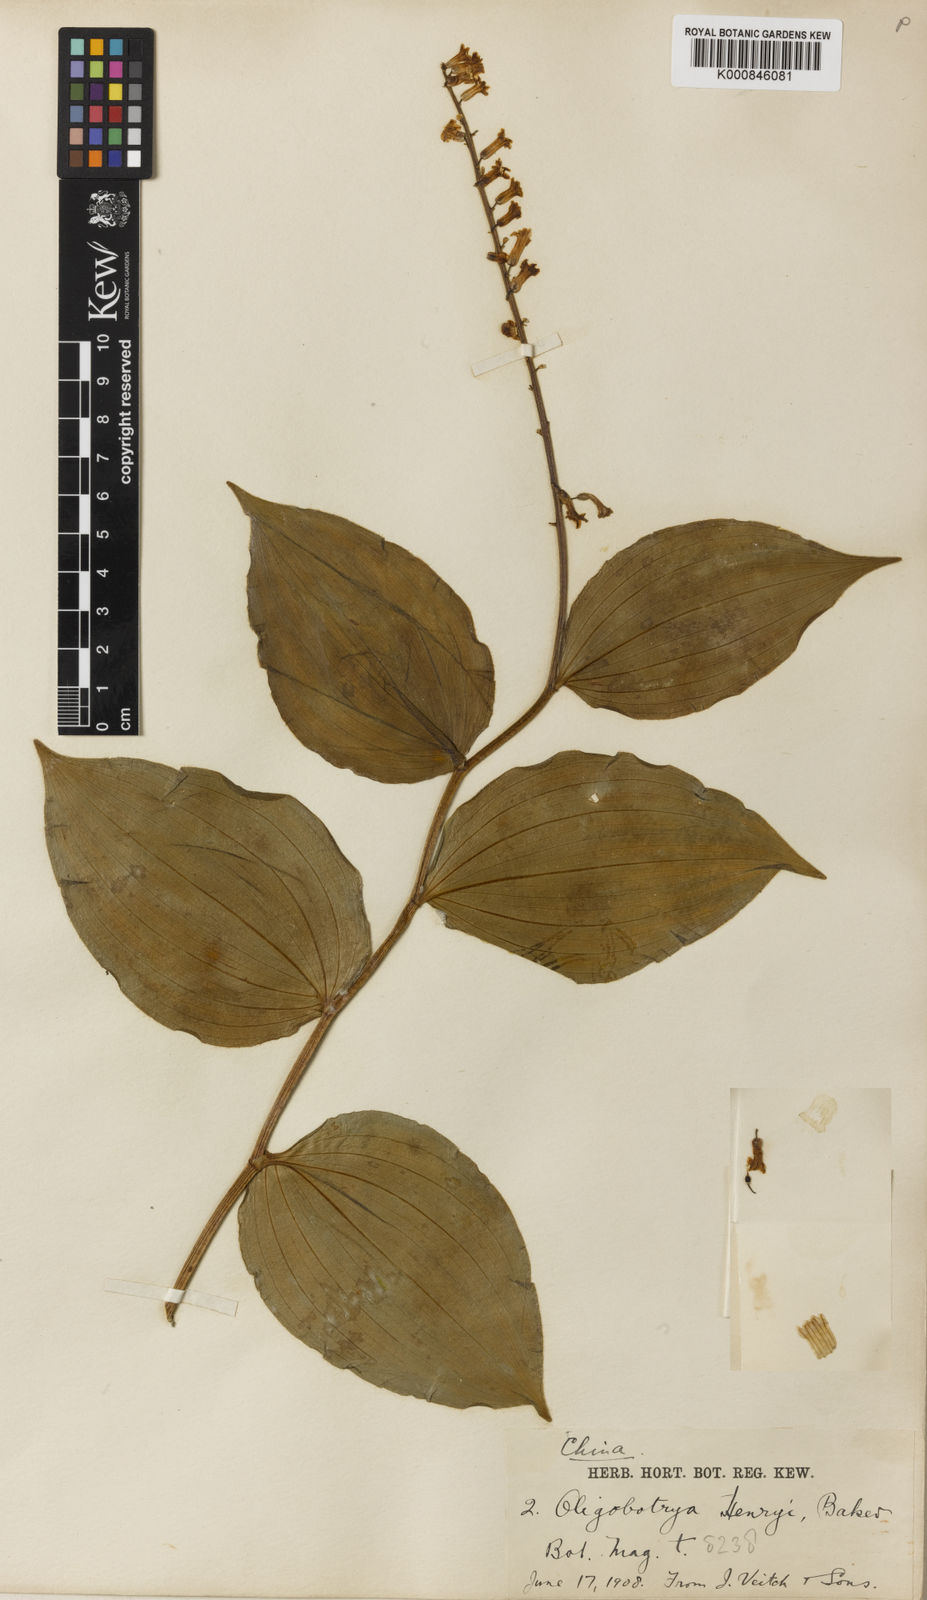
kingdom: Plantae
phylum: Tracheophyta
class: Liliopsida
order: Asparagales
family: Asparagaceae
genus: Maianthemum
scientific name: Maianthemum henryi
